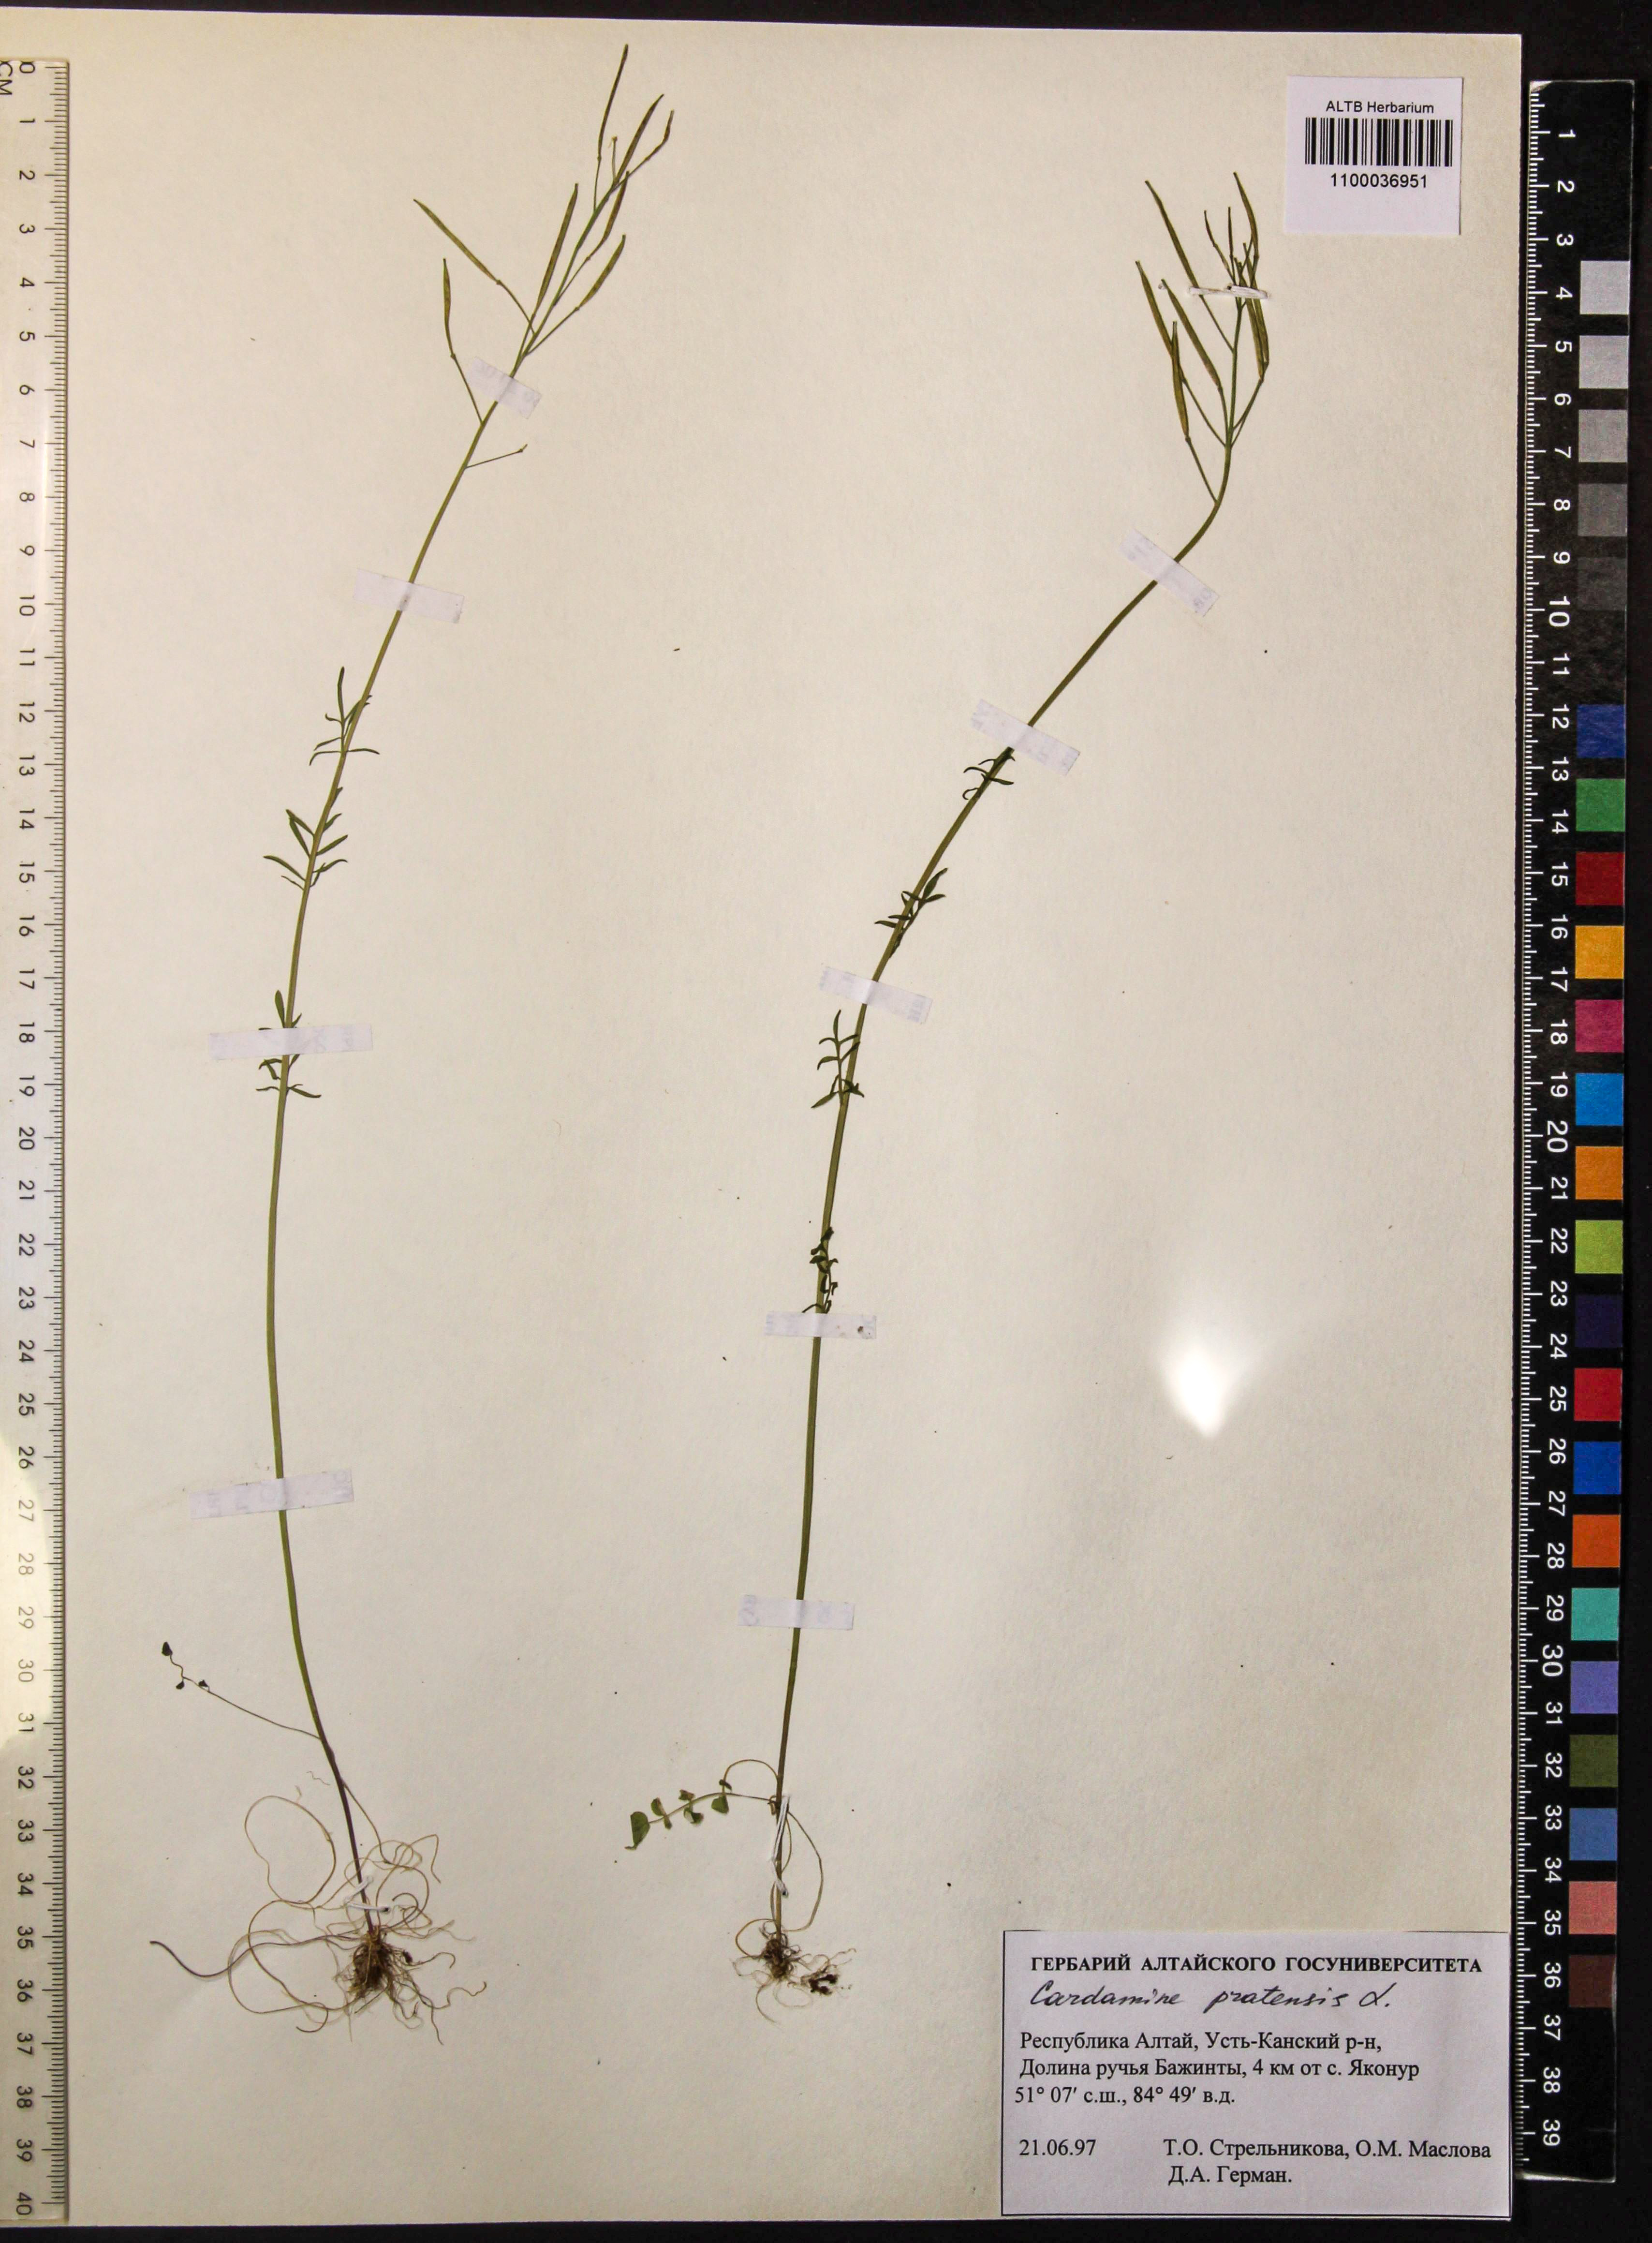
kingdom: Plantae
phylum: Tracheophyta
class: Magnoliopsida
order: Brassicales
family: Brassicaceae
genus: Cardamine
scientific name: Cardamine pratensis
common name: Cuckoo flower
